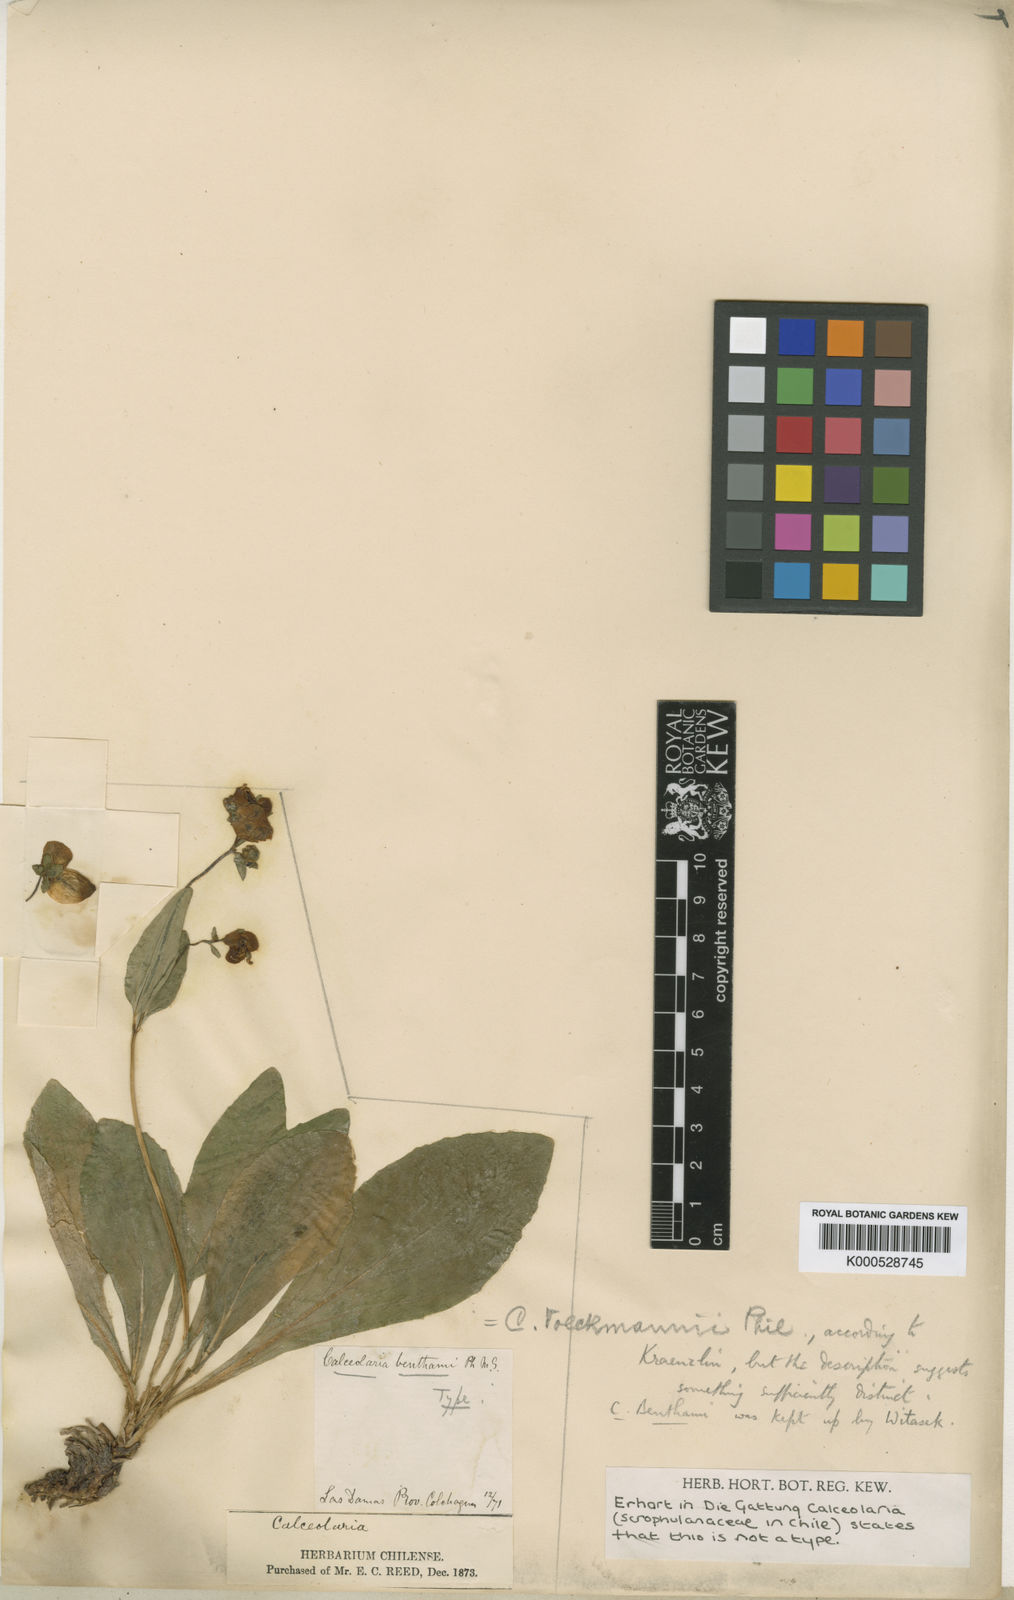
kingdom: Plantae
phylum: Tracheophyta
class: Magnoliopsida
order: Lamiales
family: Calceolariaceae
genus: Calceolaria
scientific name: Calceolaria volckmannii
